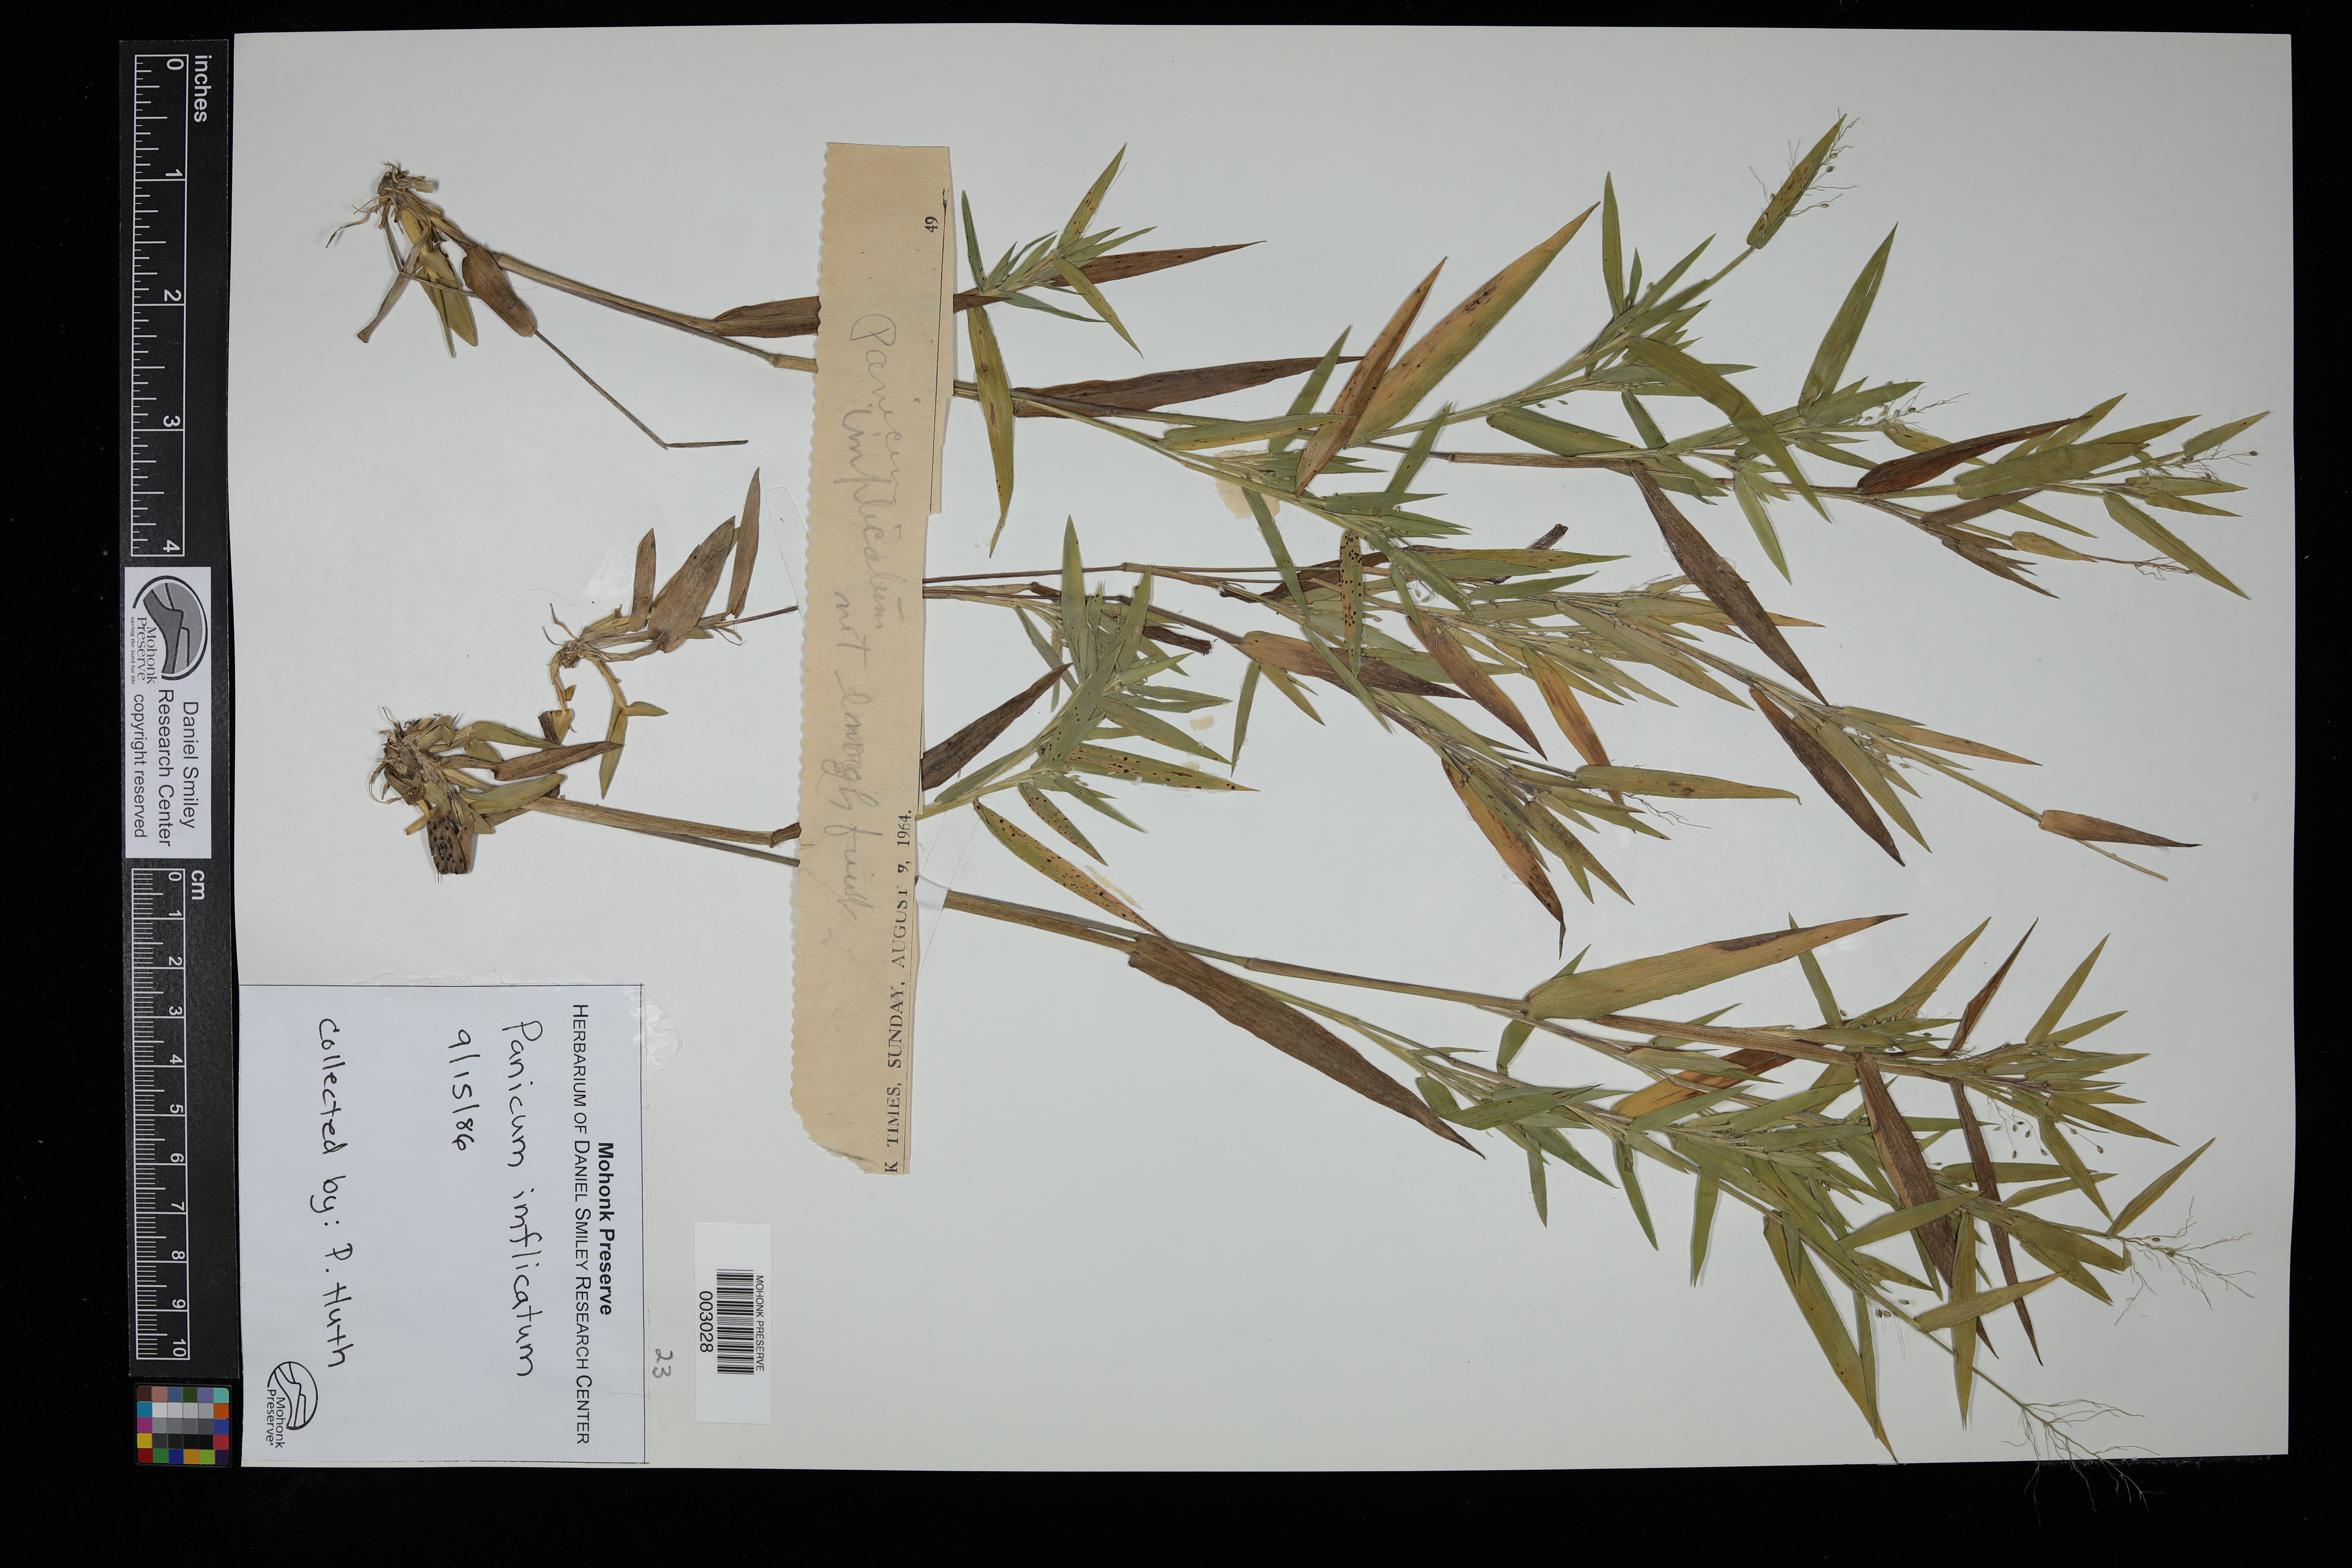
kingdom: Plantae
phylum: Tracheophyta
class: Liliopsida
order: Poales
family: Poaceae
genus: Dichanthelium
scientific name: Dichanthelium sphaerocarpon
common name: Round-fruited panicgrass
